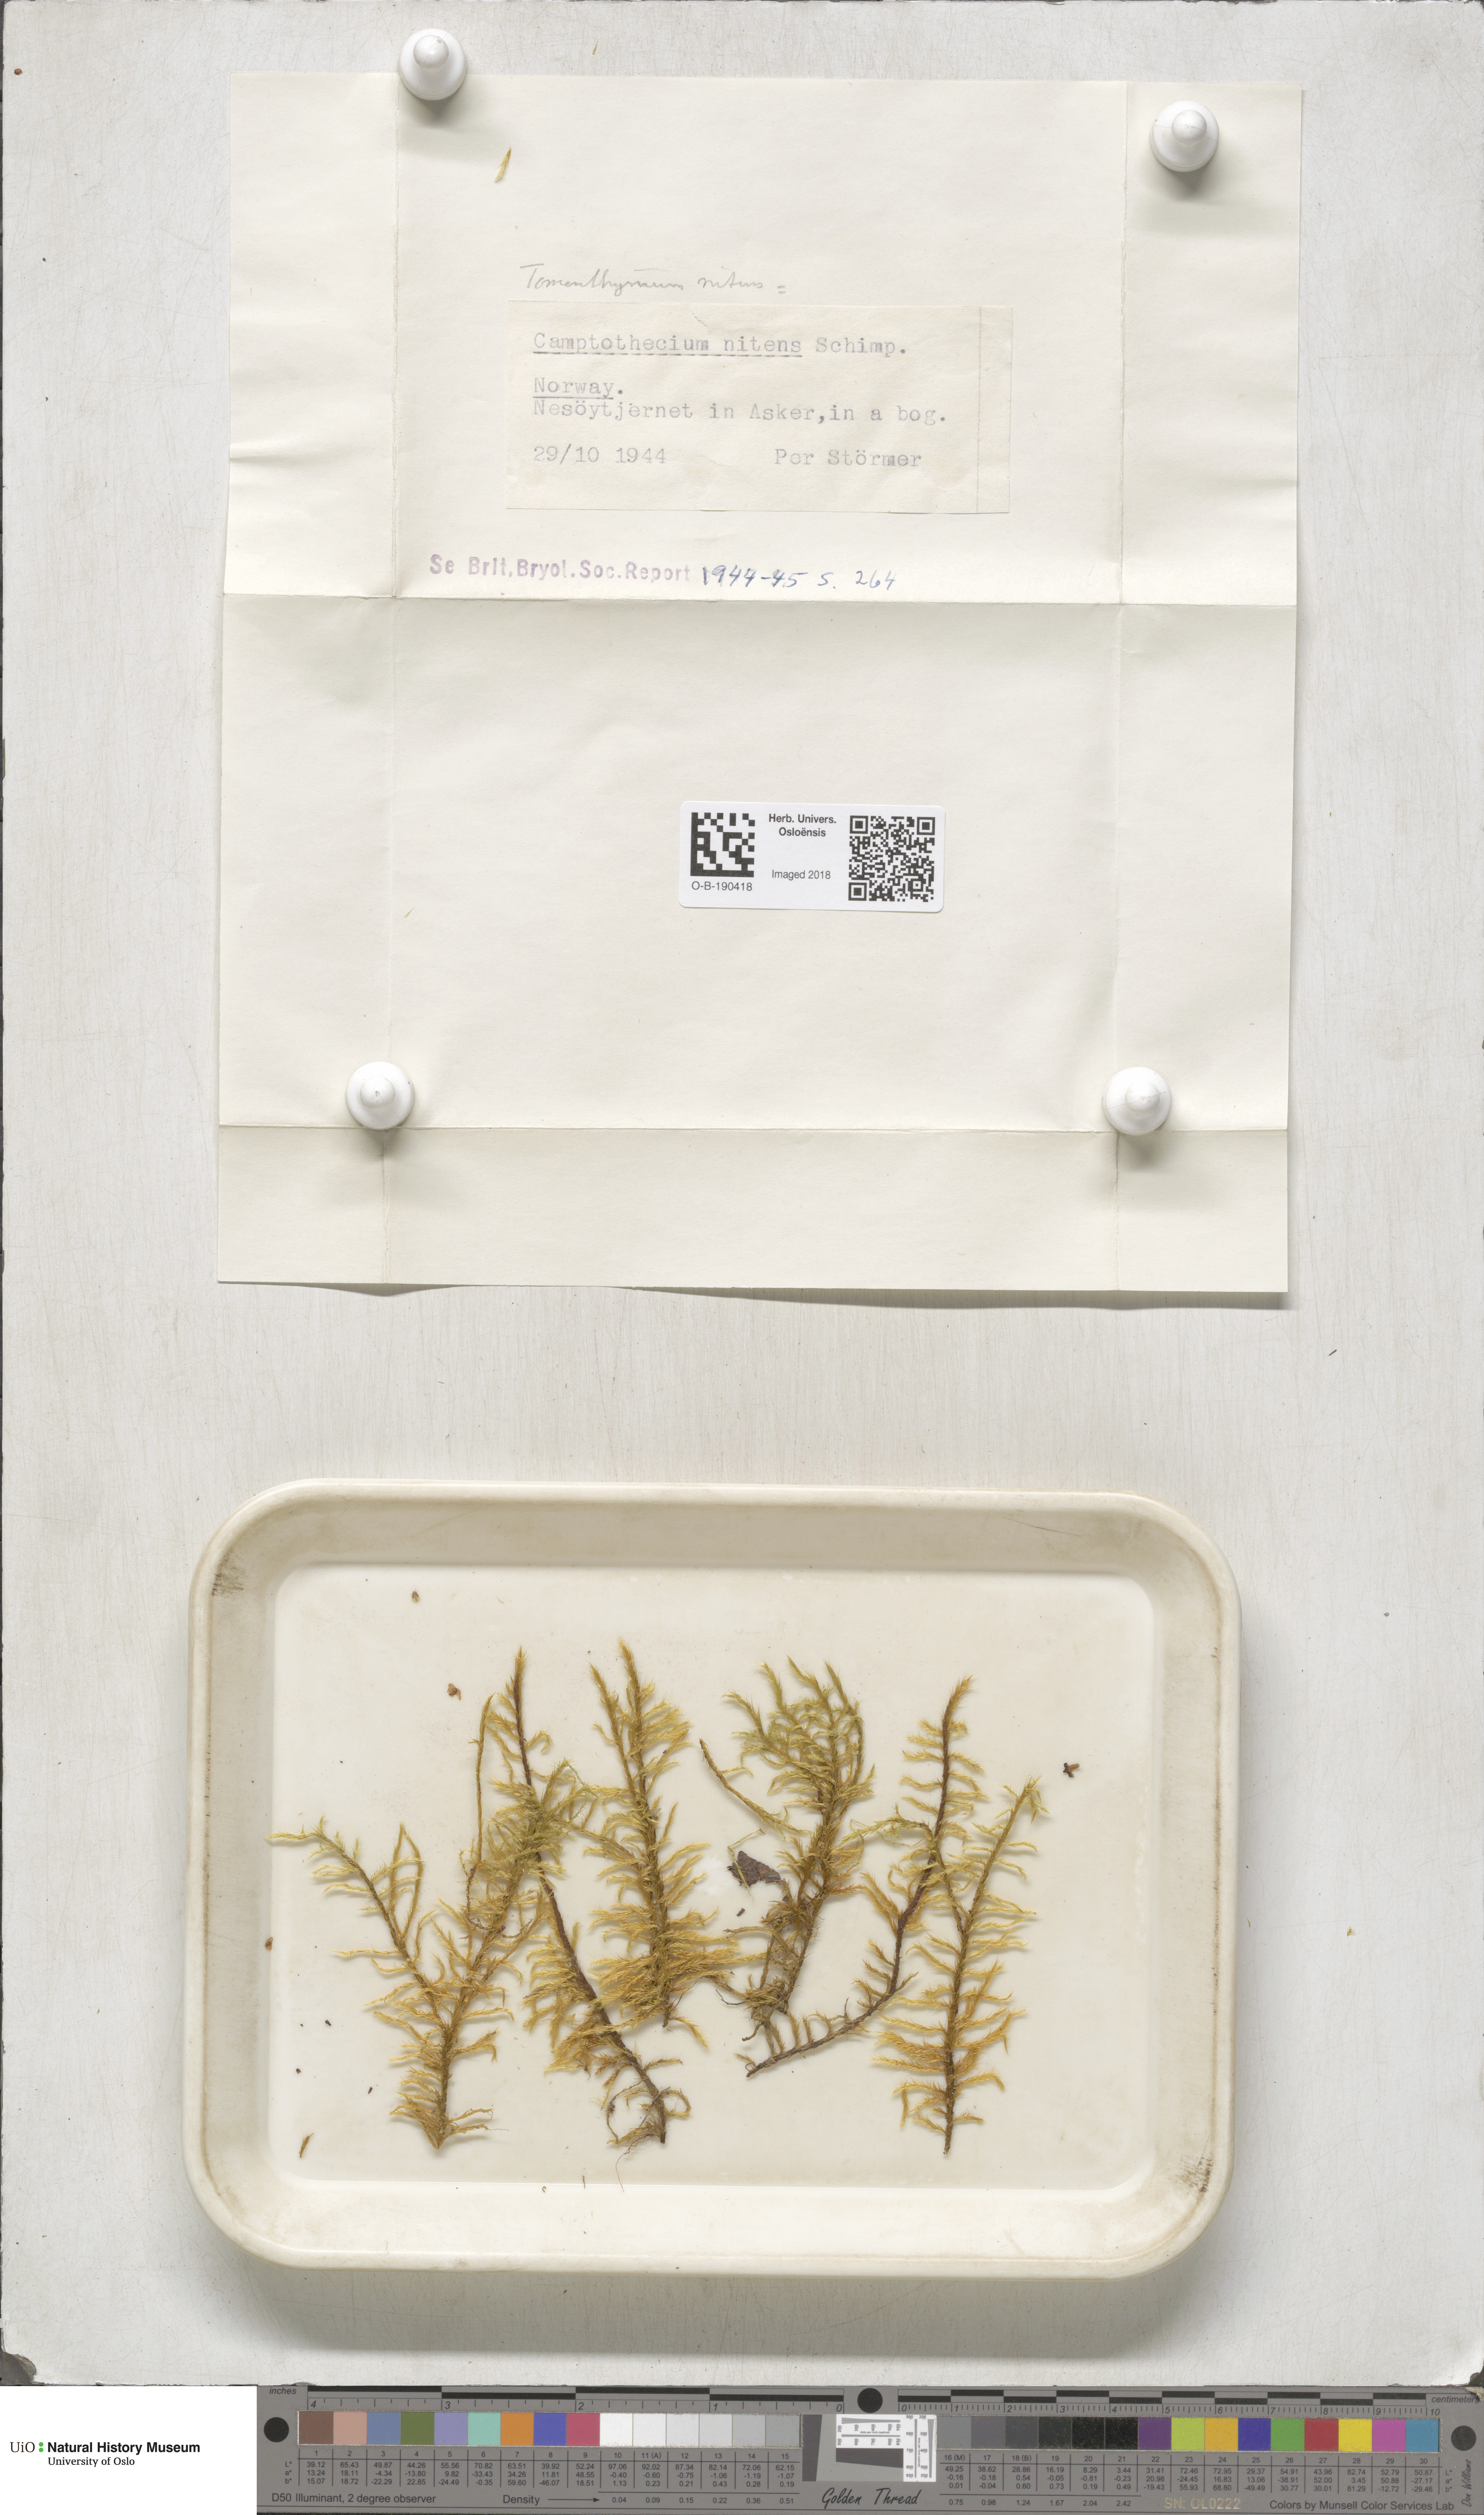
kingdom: Plantae
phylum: Bryophyta
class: Bryopsida
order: Hypnales
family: Amblystegiaceae
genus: Tomentypnum
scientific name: Tomentypnum nitens
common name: Golden fuzzy fen moss
